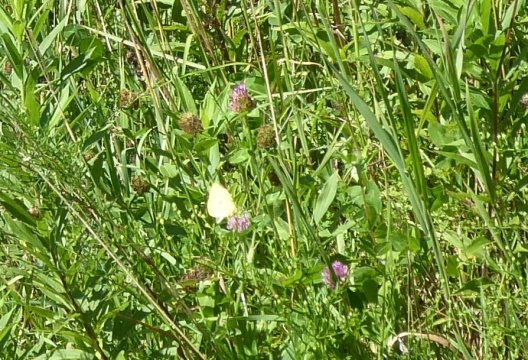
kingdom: Animalia
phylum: Arthropoda
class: Insecta
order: Lepidoptera
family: Pieridae
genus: Colias
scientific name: Colias philodice
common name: Clouded Sulphur
